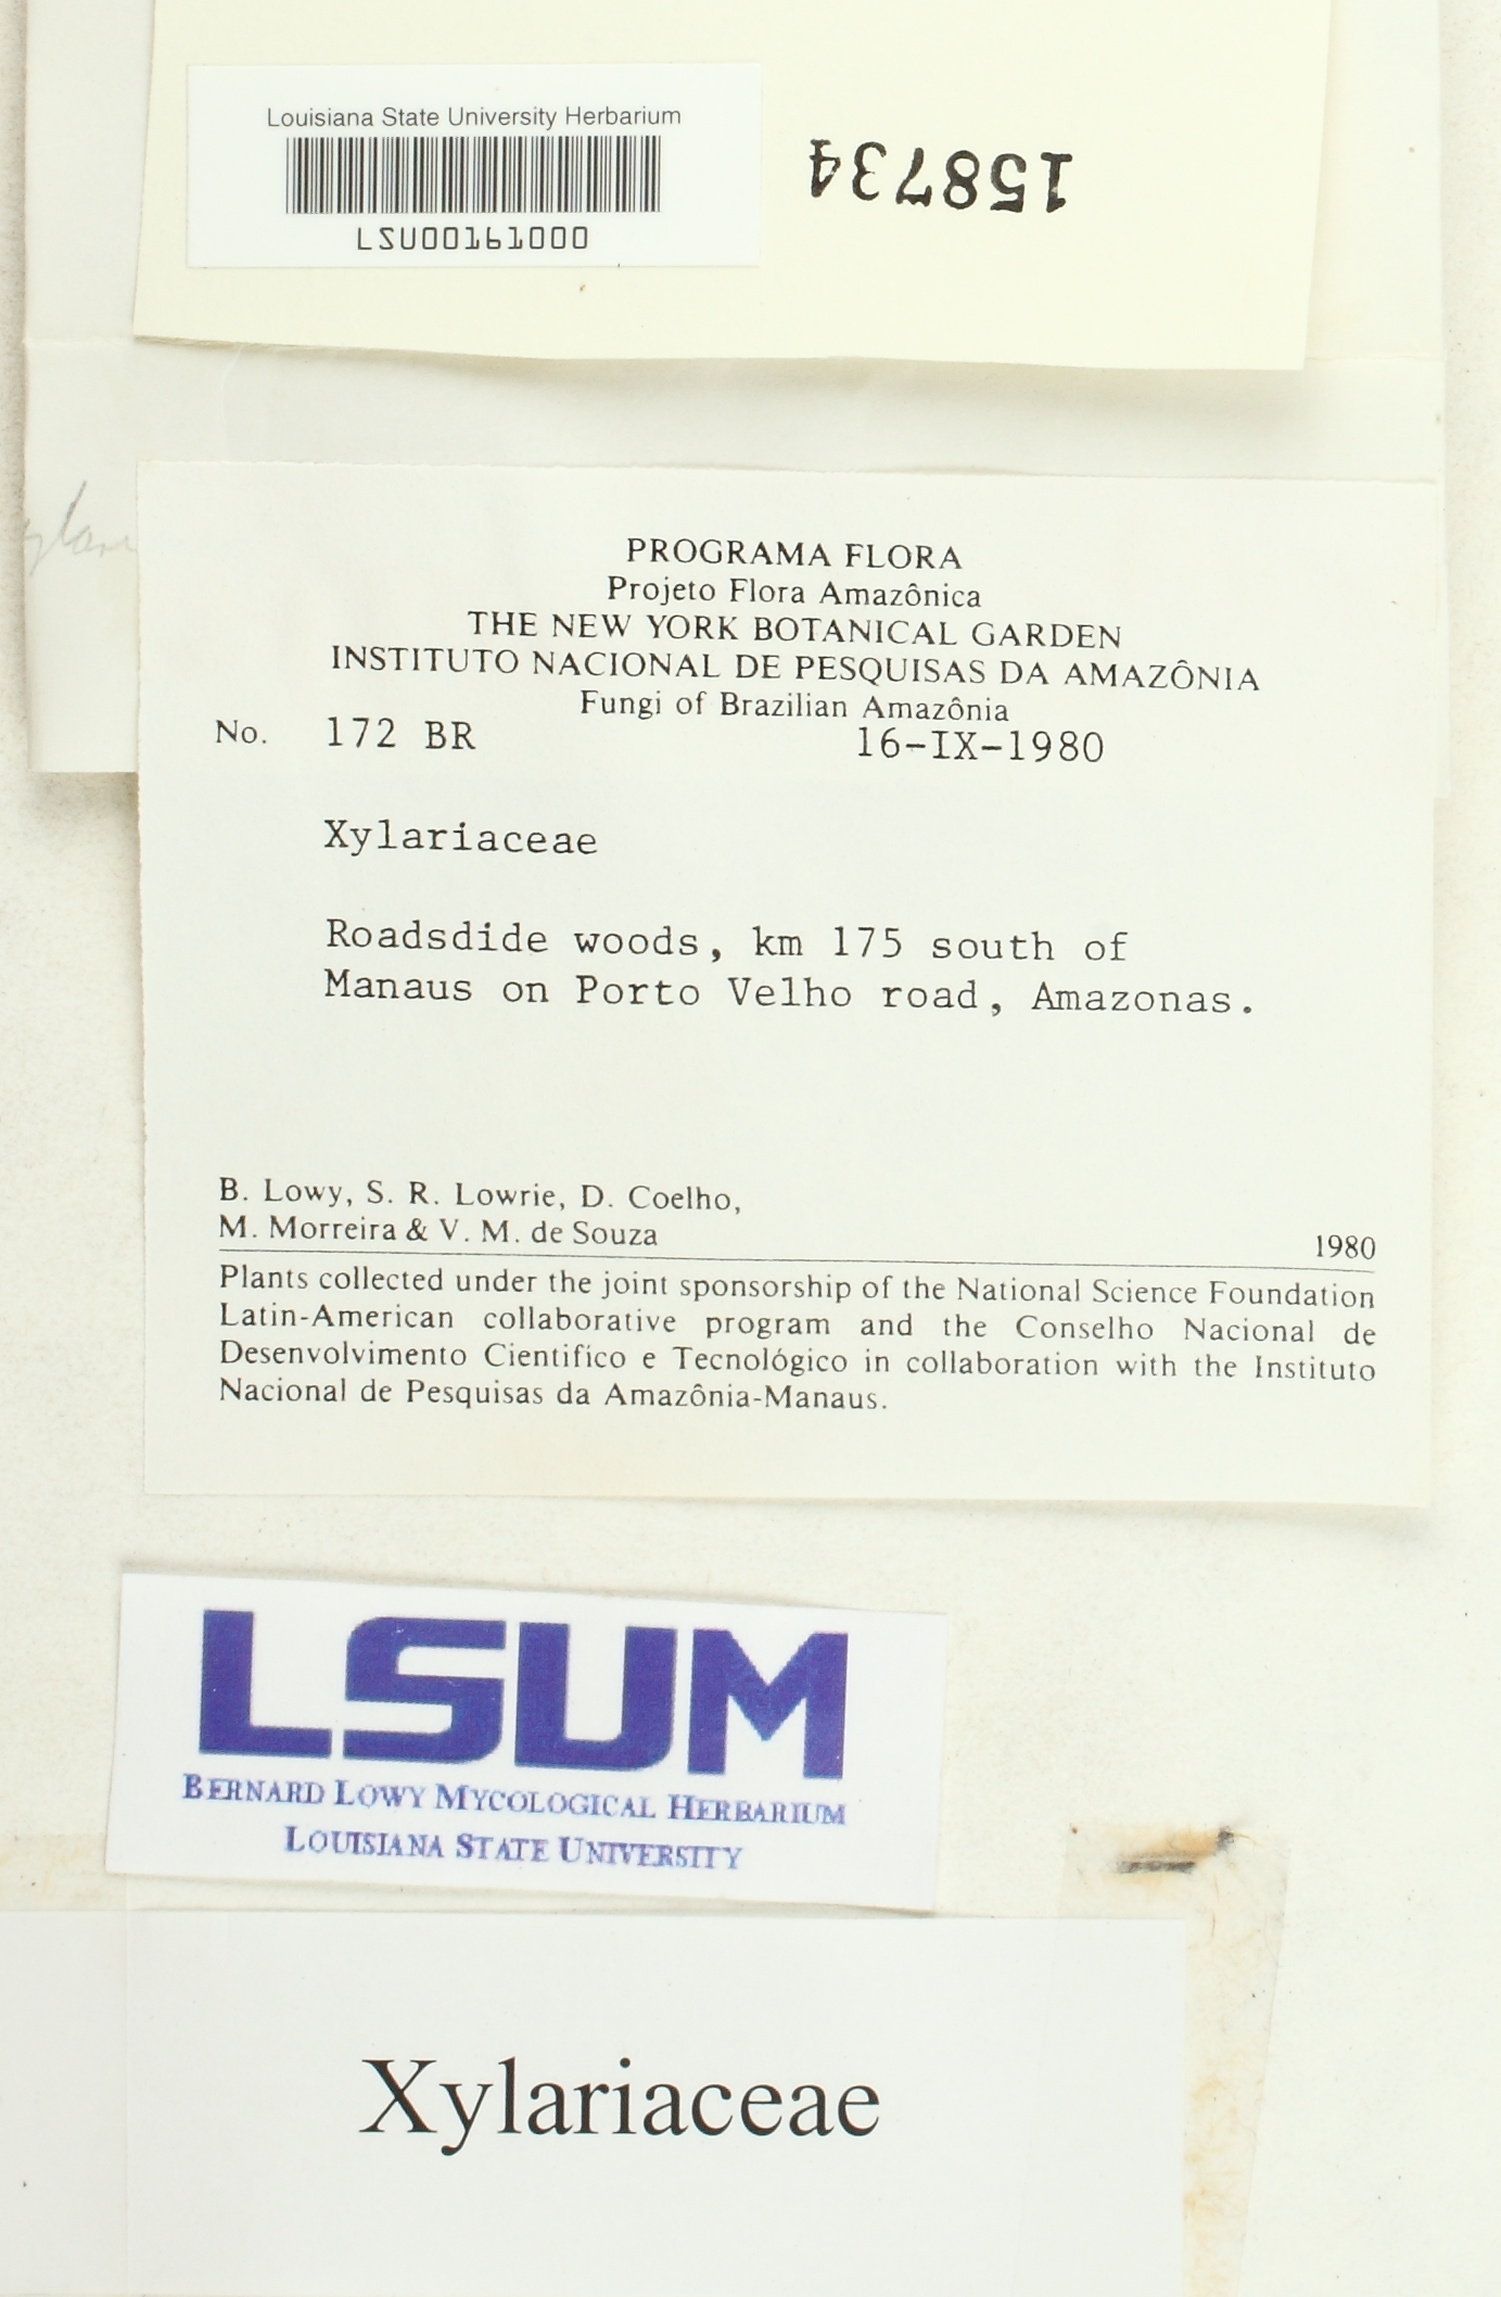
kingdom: Fungi
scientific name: Fungi
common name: Fungi
